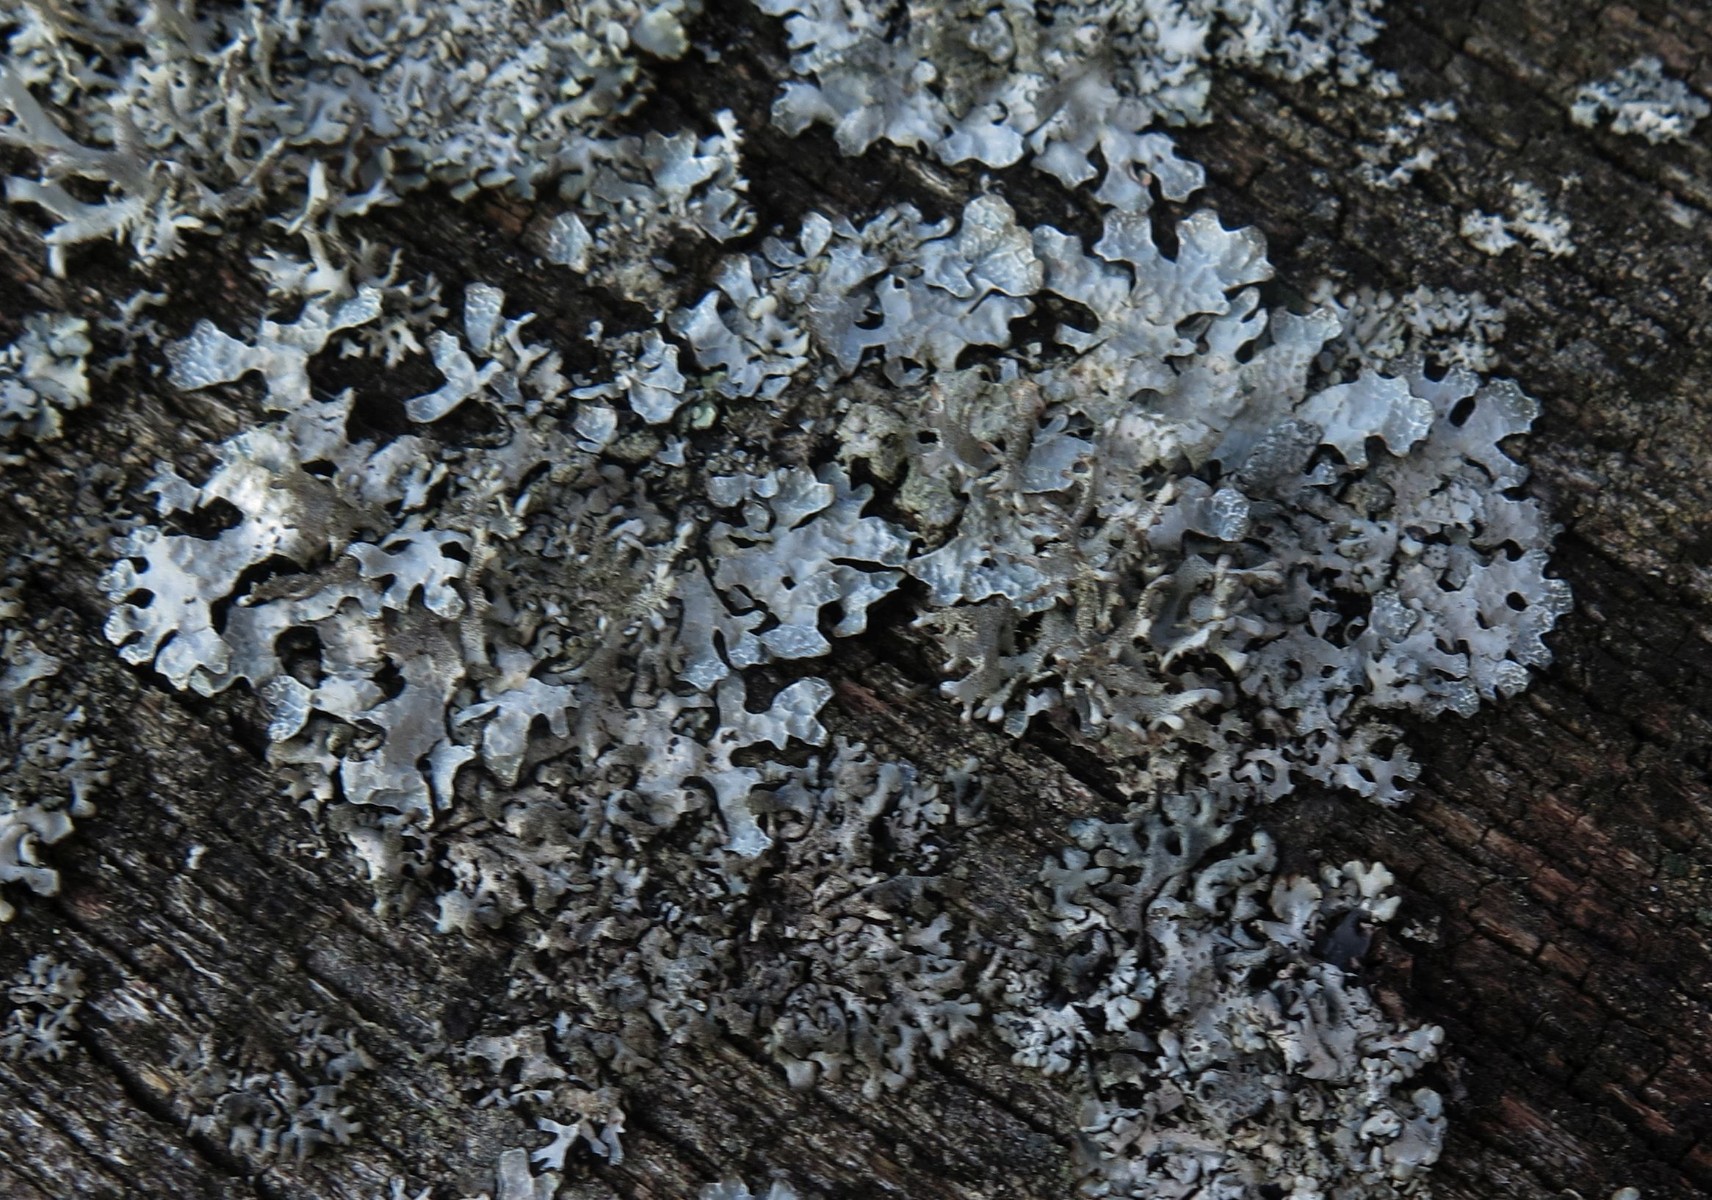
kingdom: Fungi
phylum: Ascomycota
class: Lecanoromycetes
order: Lecanorales
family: Parmeliaceae
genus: Parmelia
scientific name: Parmelia sulcata
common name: rynket skållav
